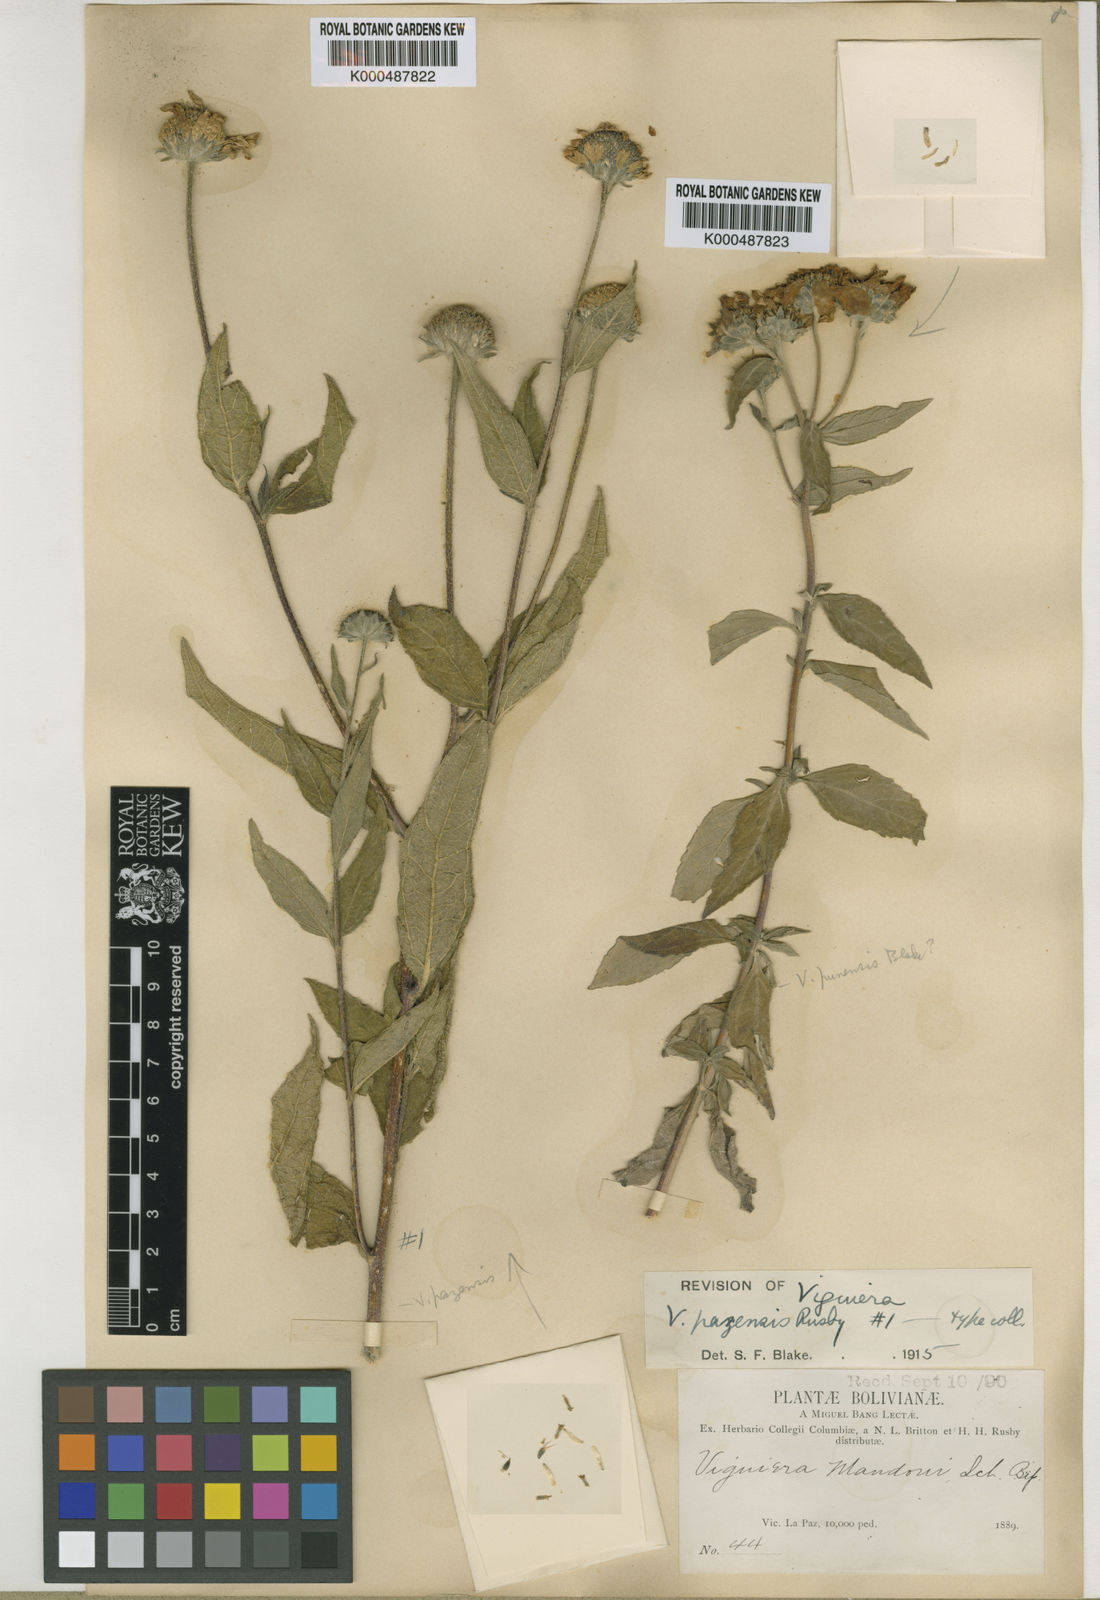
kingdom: Plantae
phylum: Tracheophyta
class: Magnoliopsida
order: Asterales
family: Asteraceae
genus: Aldama
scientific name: Aldama helianthoides
